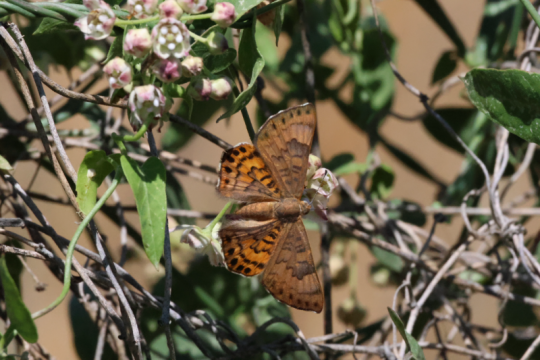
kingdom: Animalia
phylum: Arthropoda
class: Insecta
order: Lepidoptera
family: Lycaenidae
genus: Emesis
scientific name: Emesis zela
